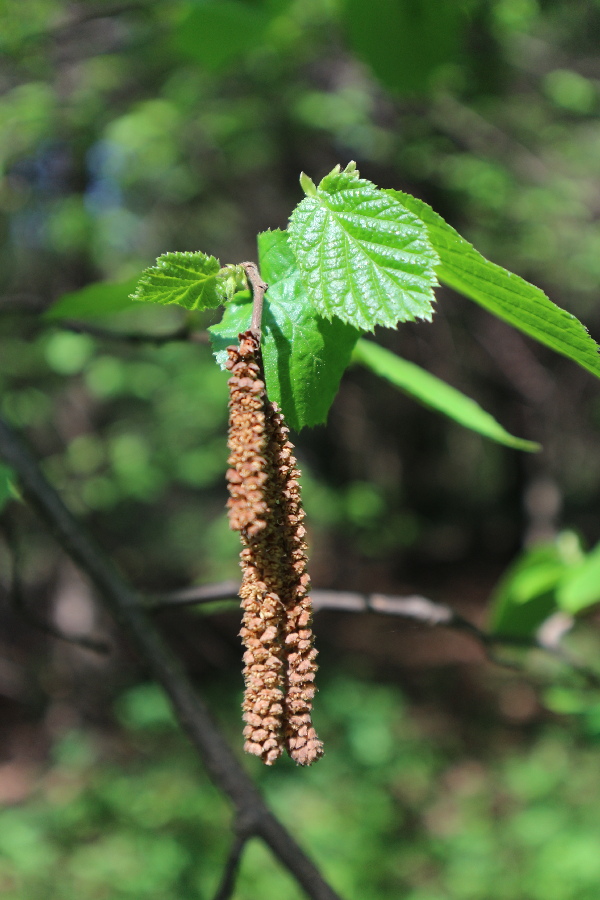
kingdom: Plantae
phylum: Tracheophyta
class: Magnoliopsida
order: Fagales
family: Betulaceae
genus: Corylus
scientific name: Corylus avellana
